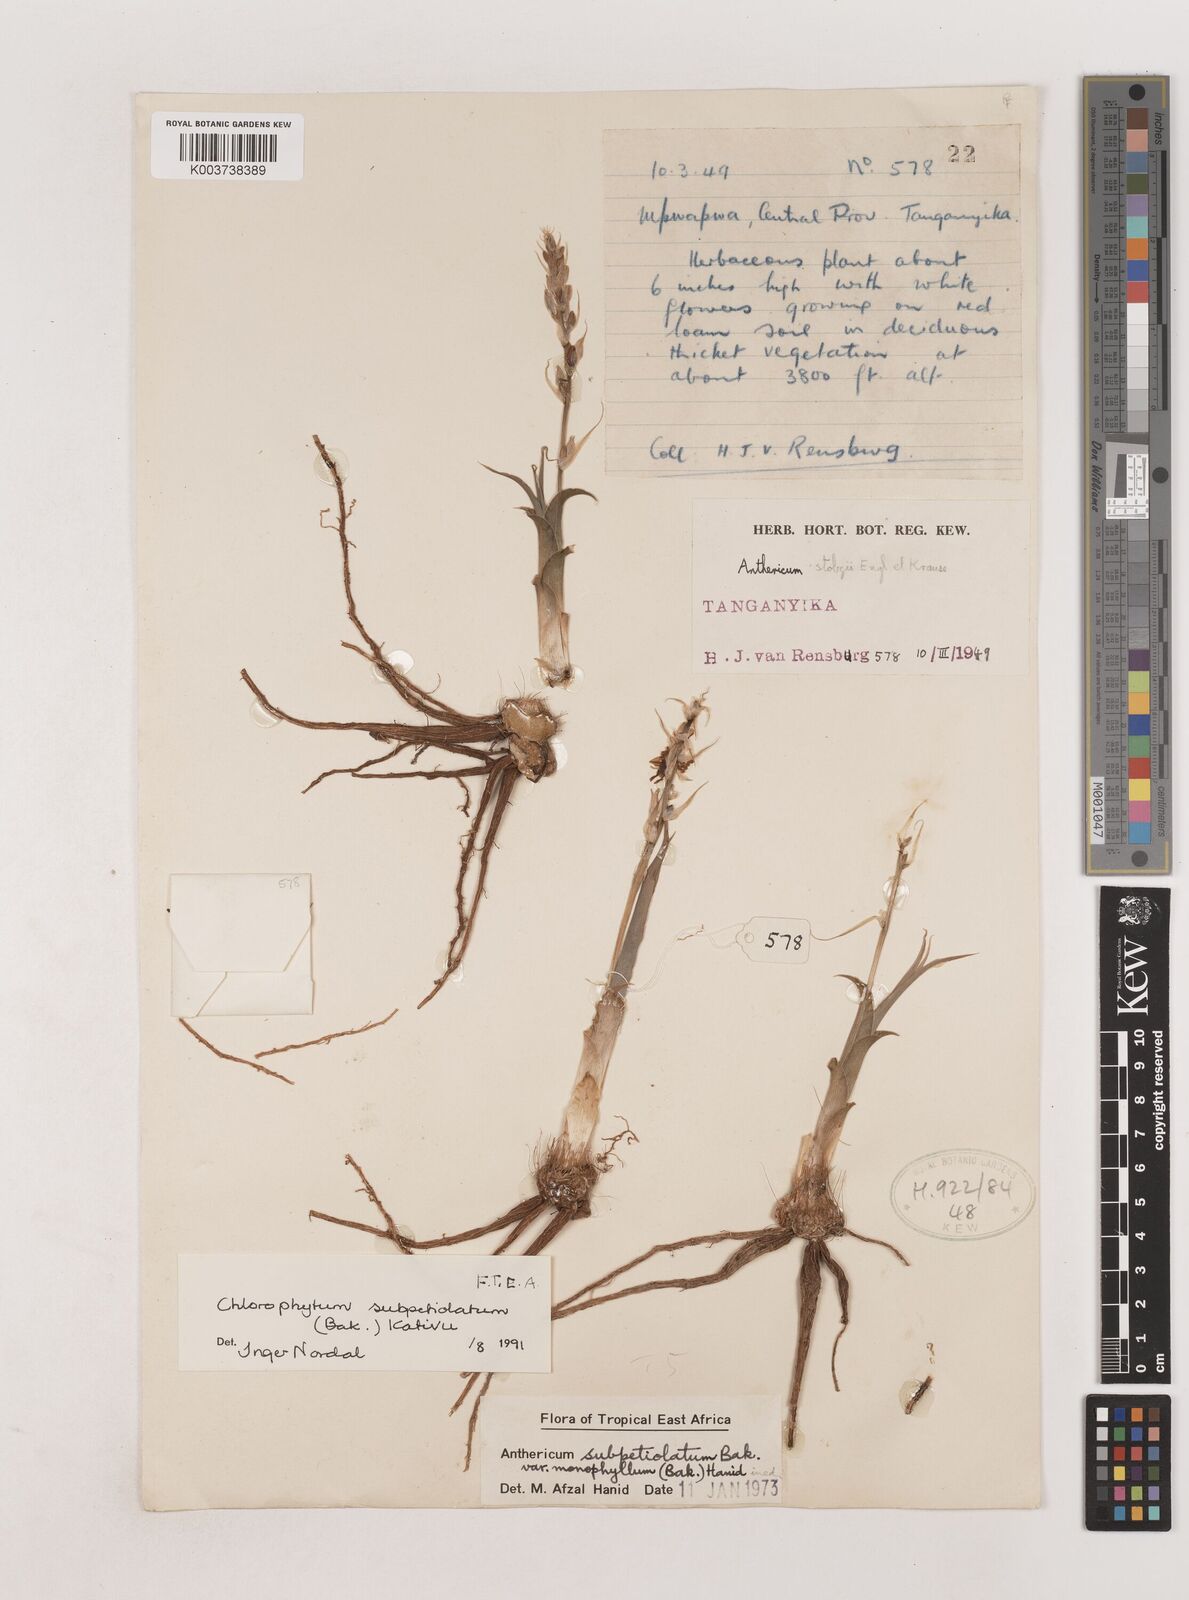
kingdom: Plantae
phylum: Tracheophyta
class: Liliopsida
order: Asparagales
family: Asparagaceae
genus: Chlorophytum
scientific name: Chlorophytum subpetiolatum
